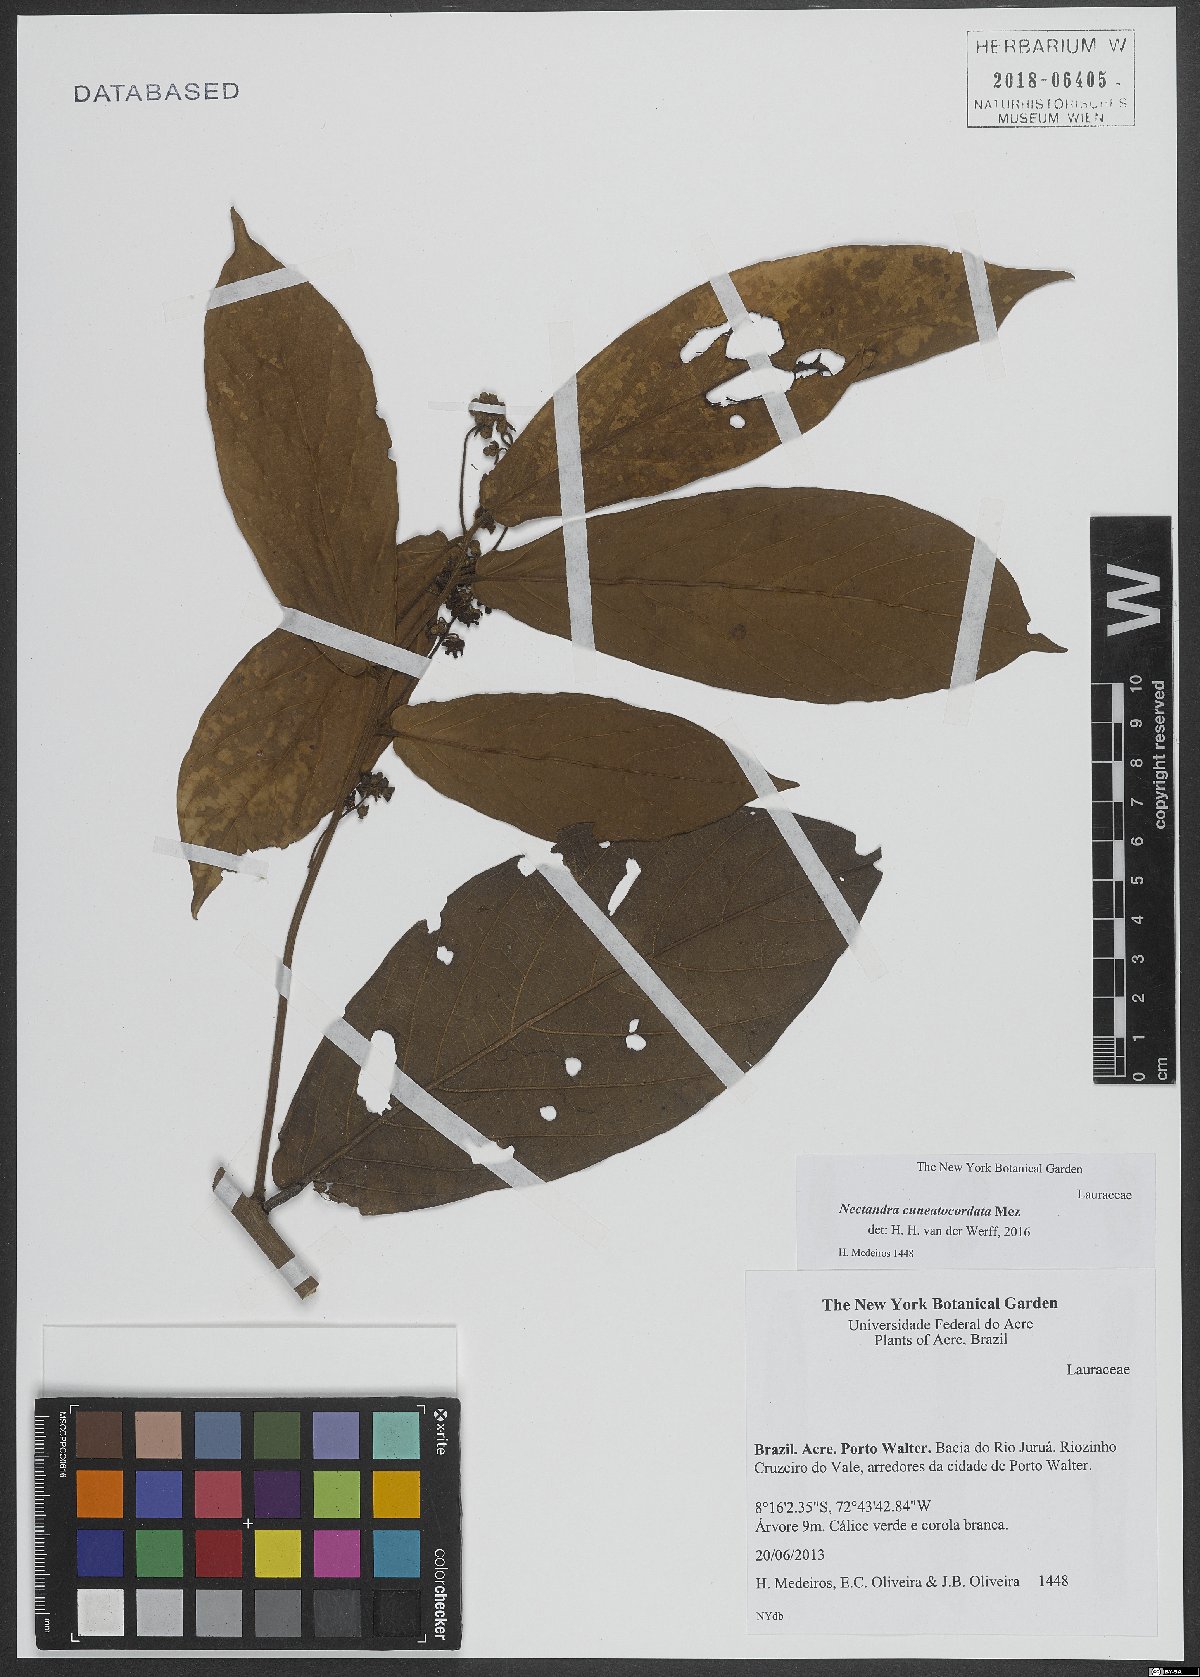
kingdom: Plantae
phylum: Tracheophyta
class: Magnoliopsida
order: Laurales
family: Lauraceae
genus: Nectandra
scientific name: Nectandra cuneatocordata
